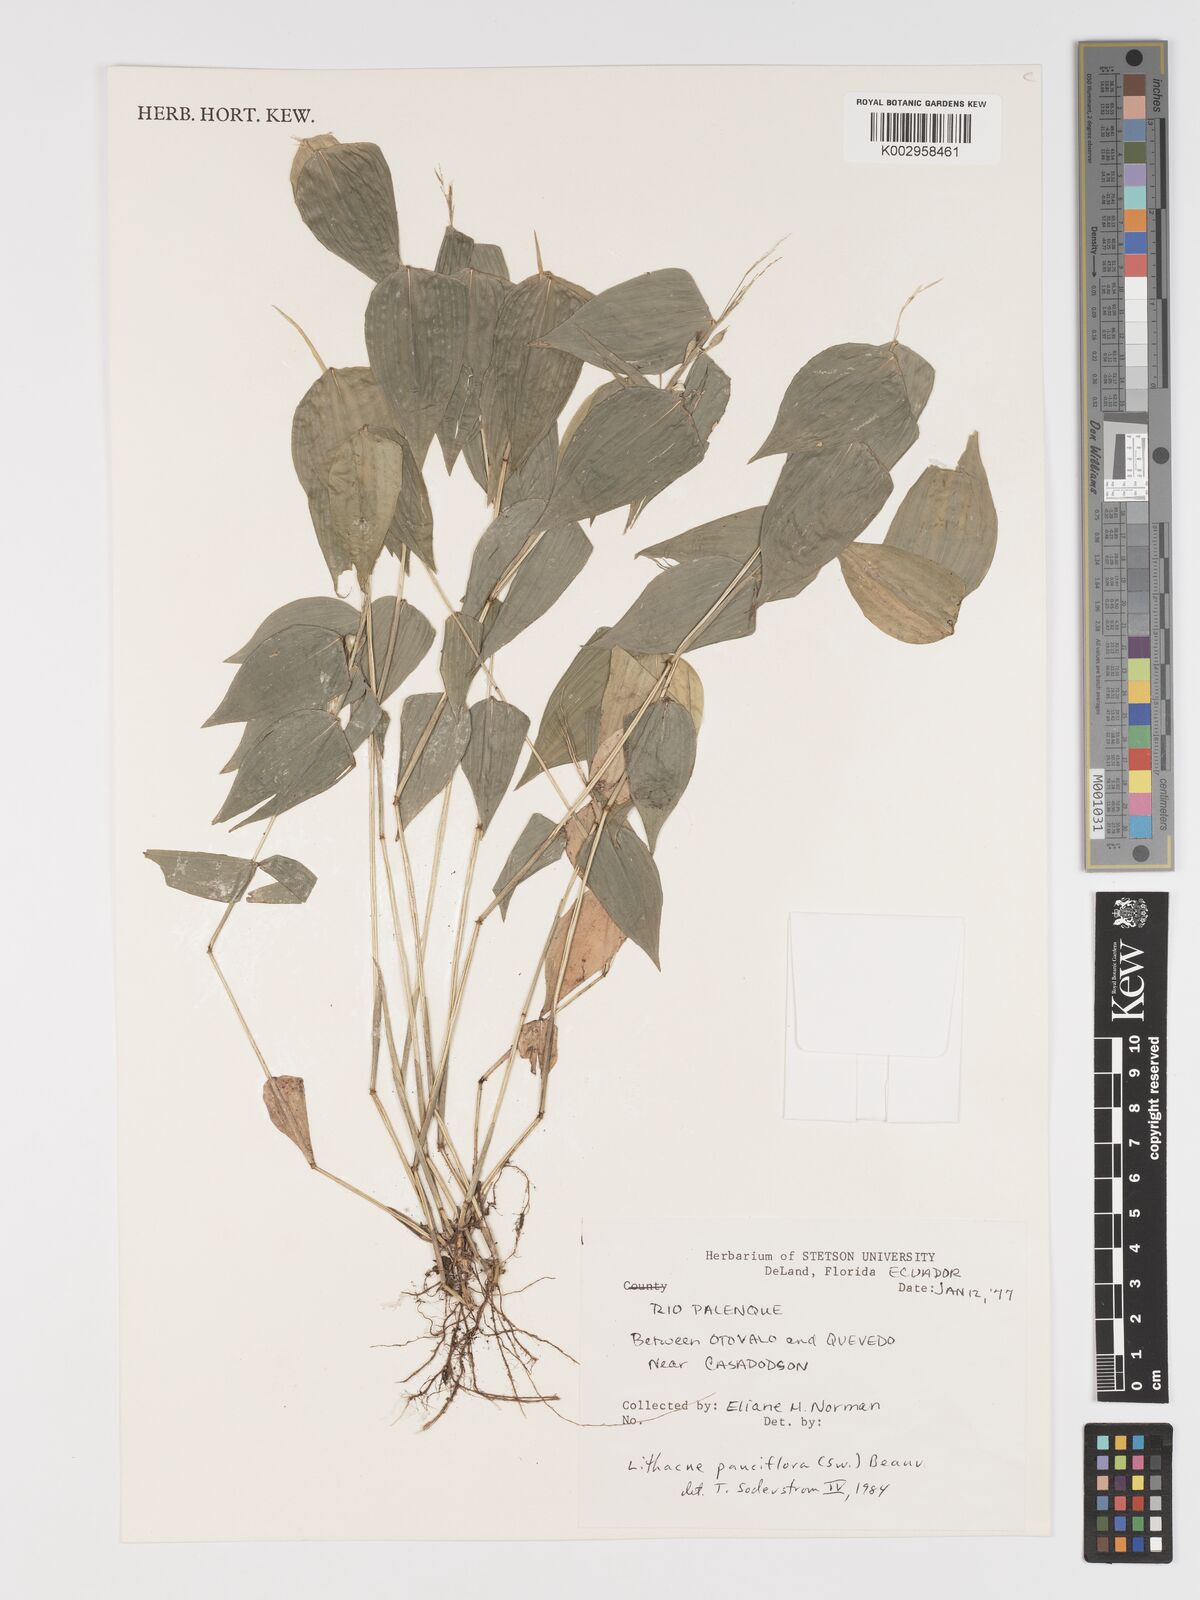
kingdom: Plantae
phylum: Tracheophyta
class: Liliopsida
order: Poales
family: Poaceae
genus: Lithachne
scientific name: Lithachne pauciflora
